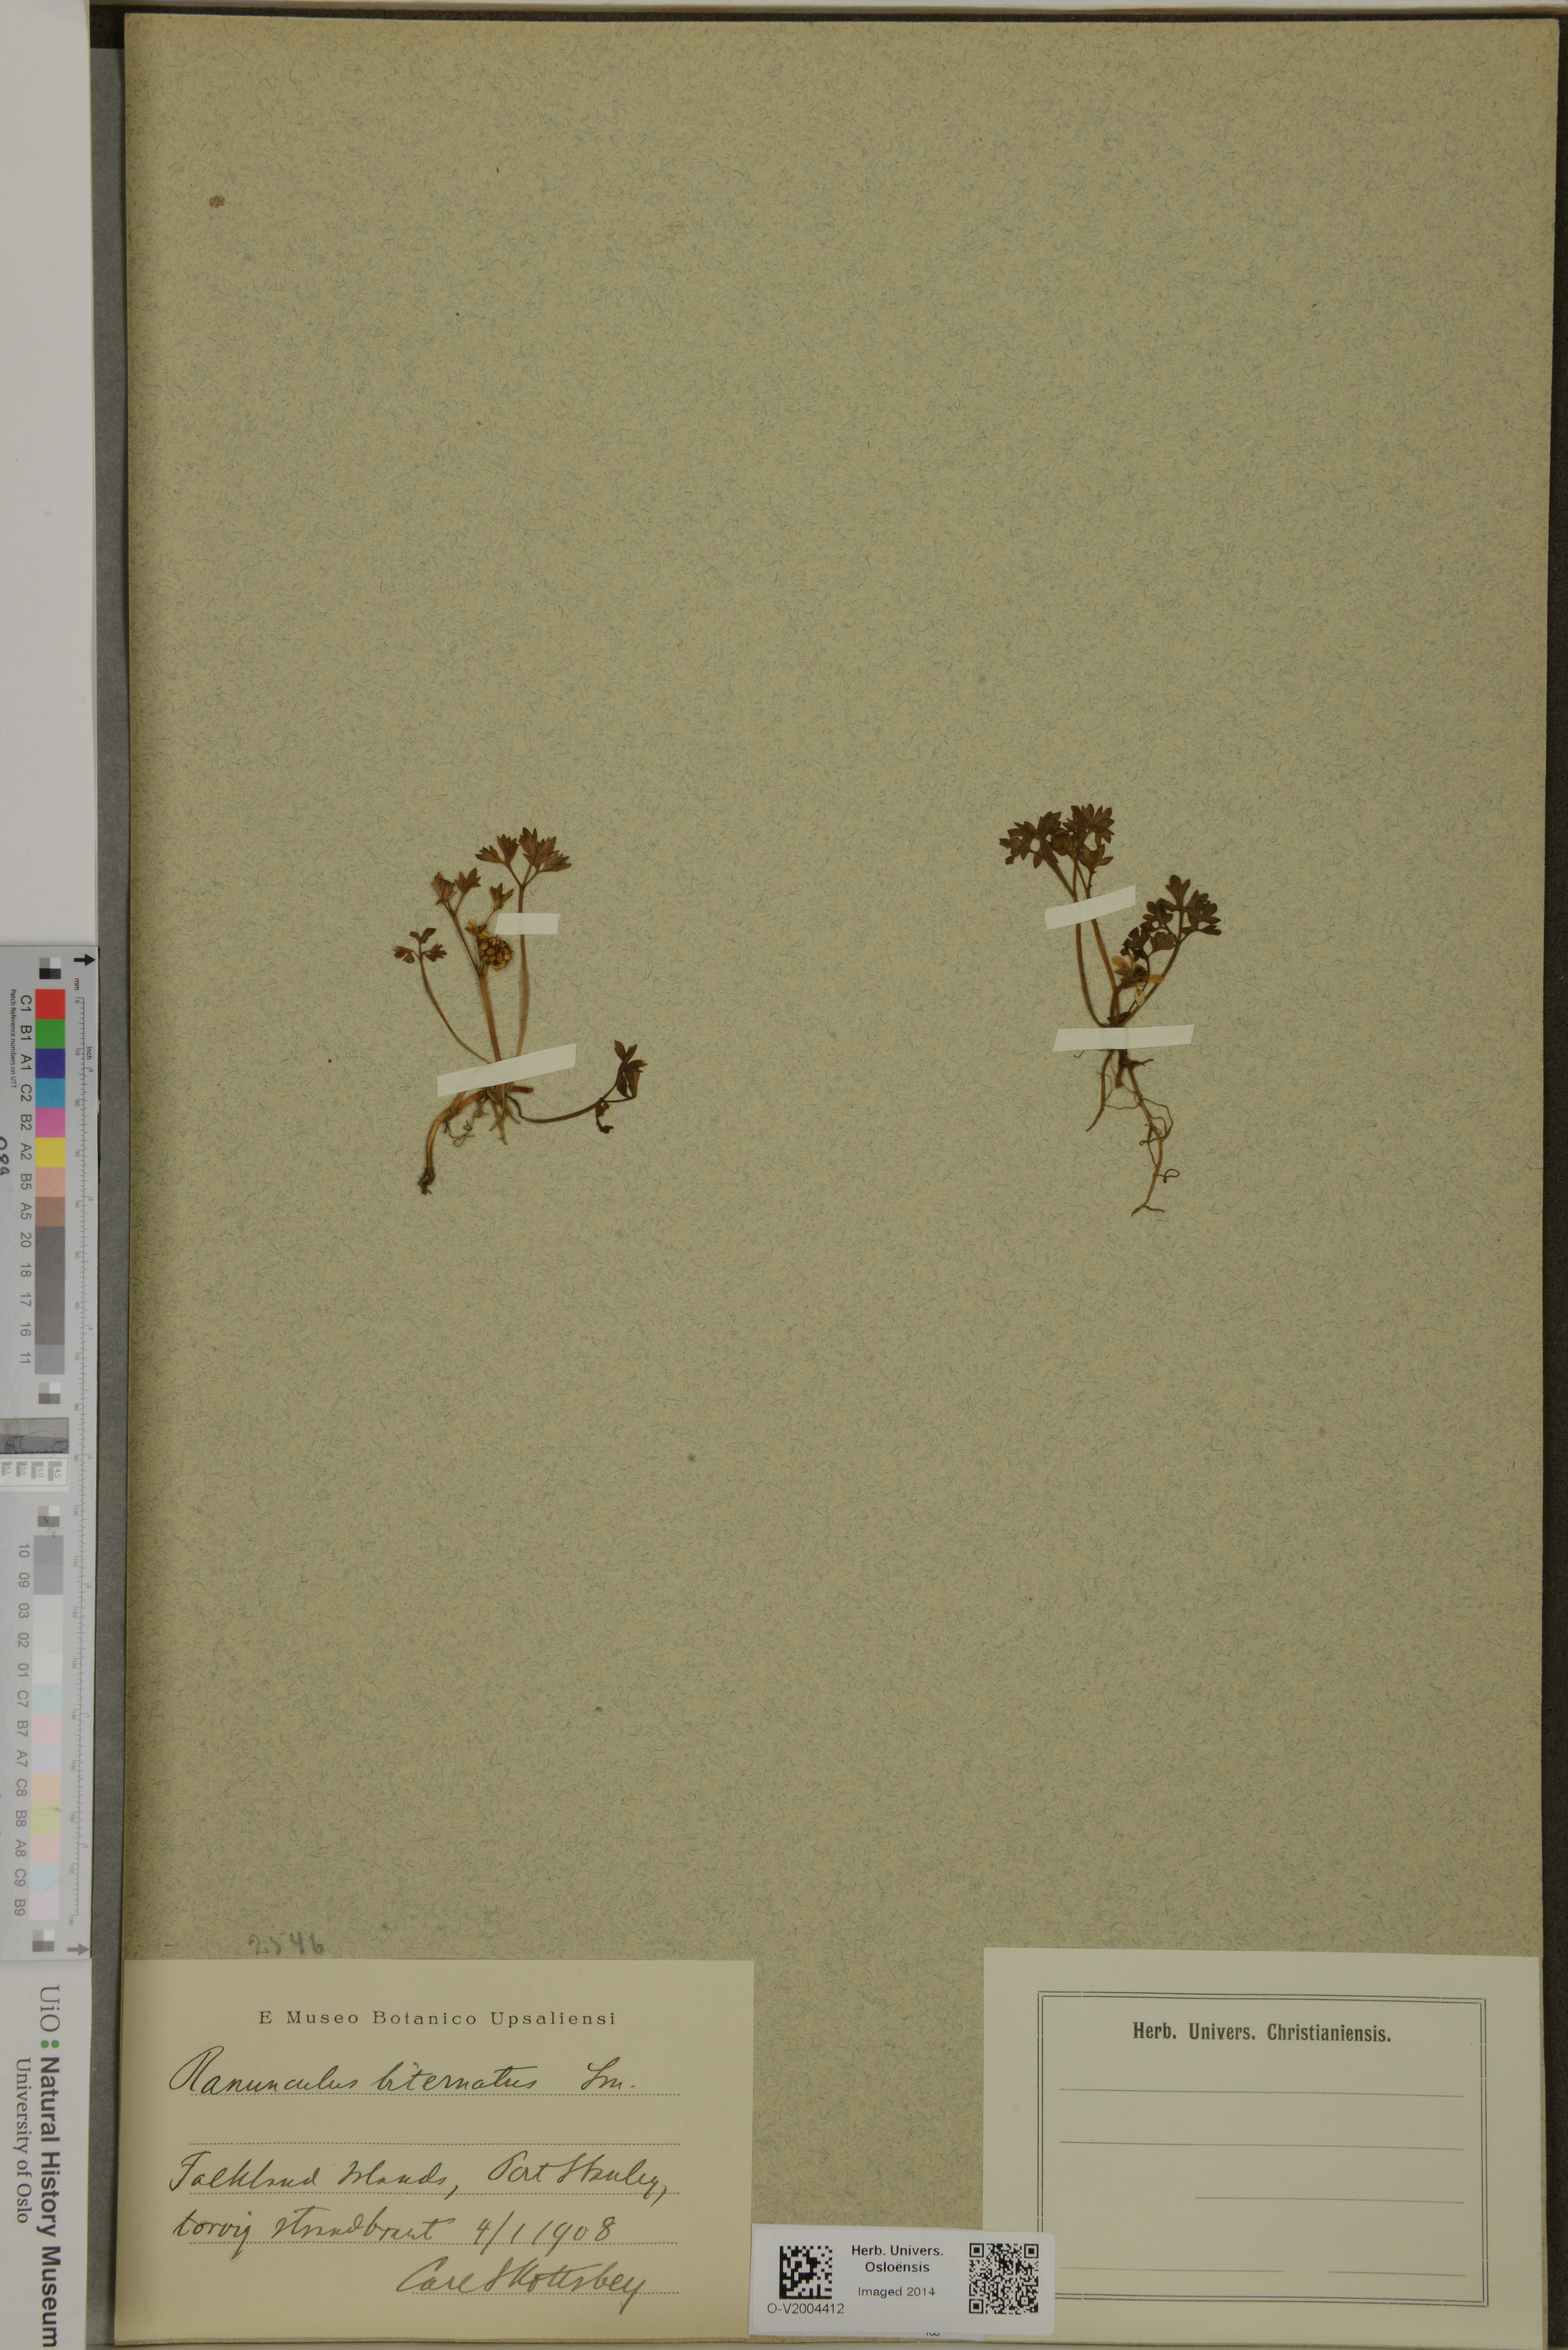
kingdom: Plantae
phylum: Tracheophyta
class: Magnoliopsida
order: Ranunculales
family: Ranunculaceae
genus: Ranunculus
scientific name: Ranunculus biternatus
